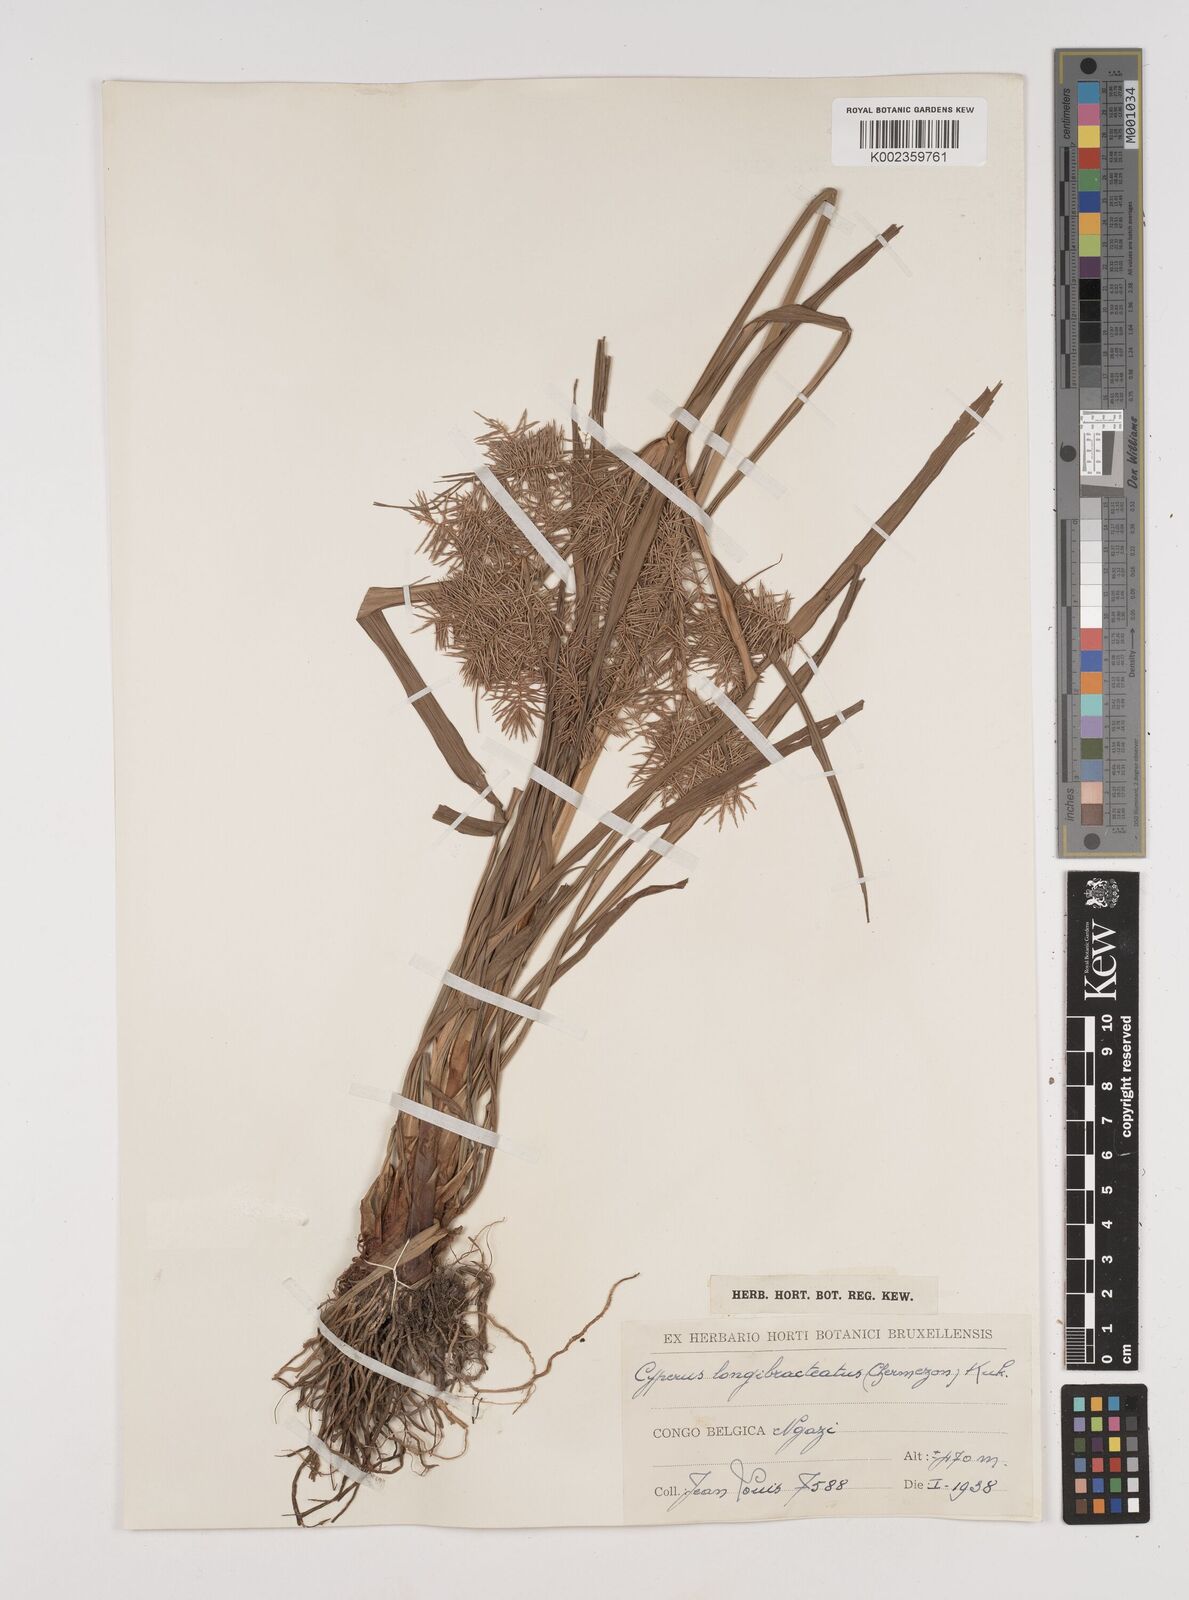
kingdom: Plantae
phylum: Tracheophyta
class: Liliopsida
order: Poales
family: Cyperaceae
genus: Cyperus
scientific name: Cyperus distans
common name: Slender cyperus
